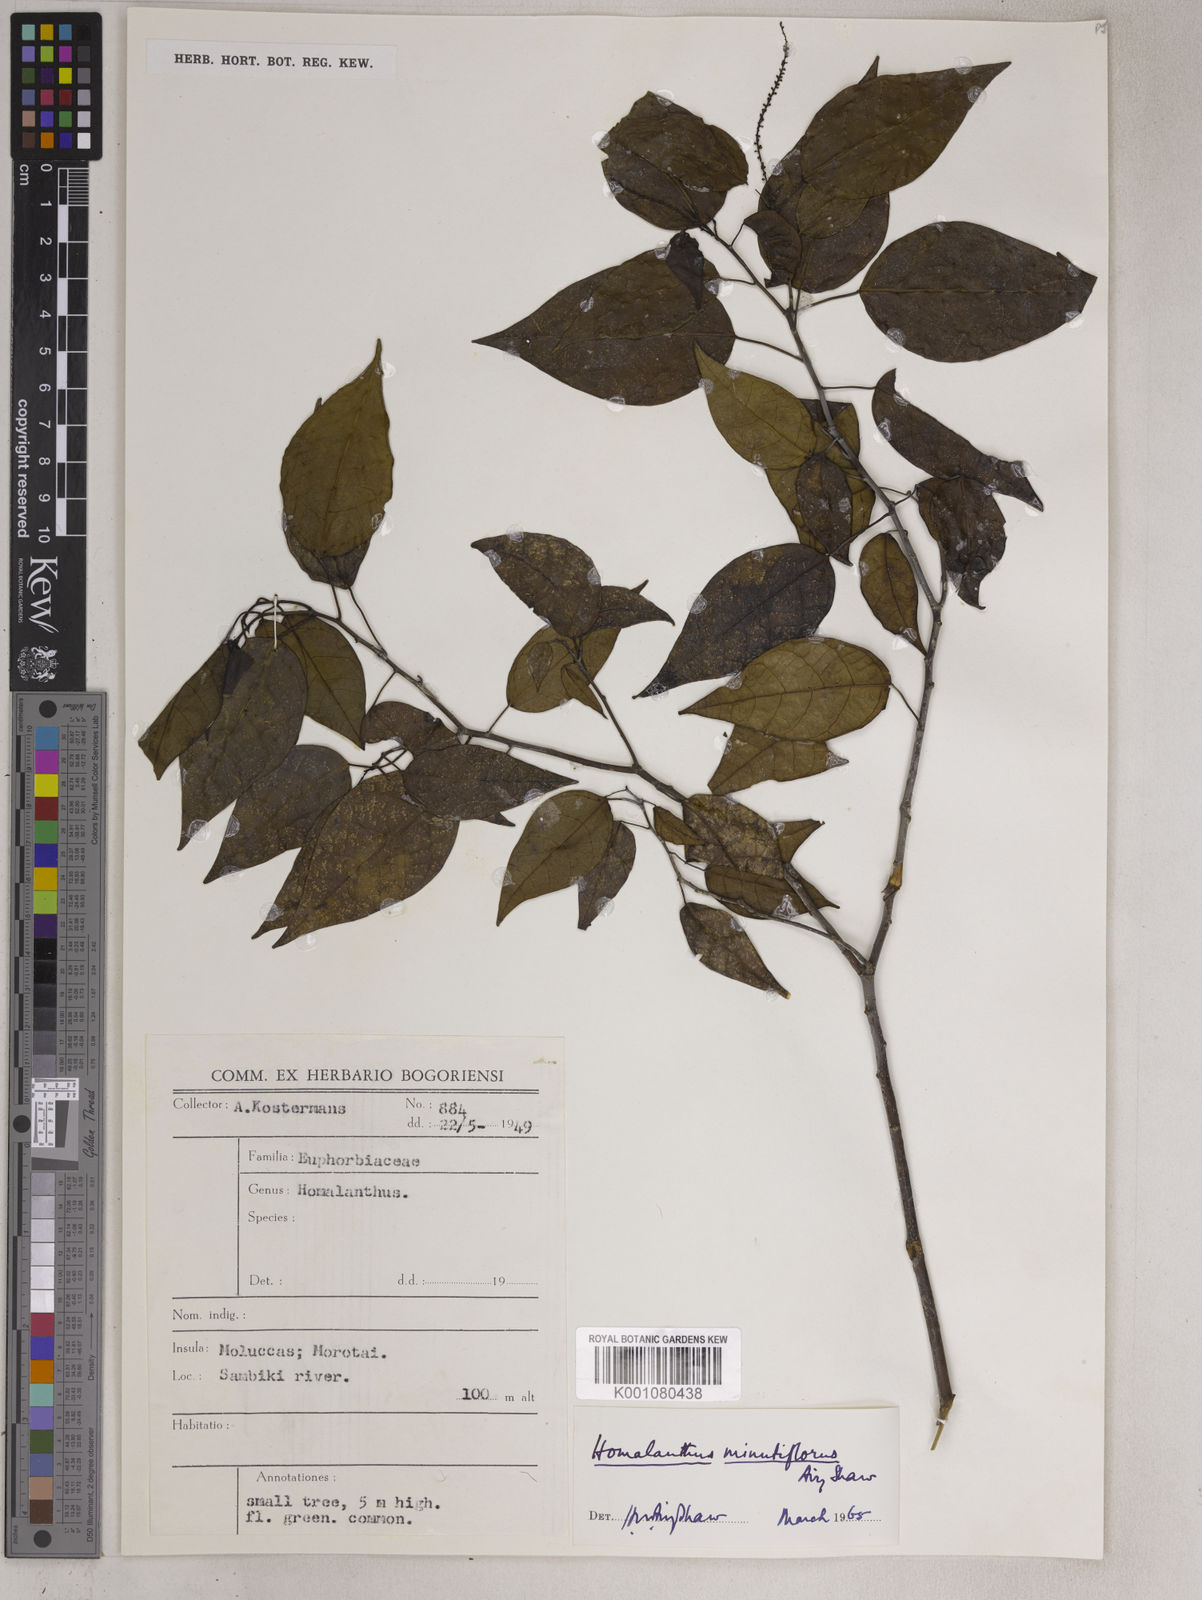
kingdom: Plantae
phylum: Tracheophyta
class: Magnoliopsida
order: Malpighiales
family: Euphorbiaceae
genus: Homalanthus
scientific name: Homalanthus arfakiensis
